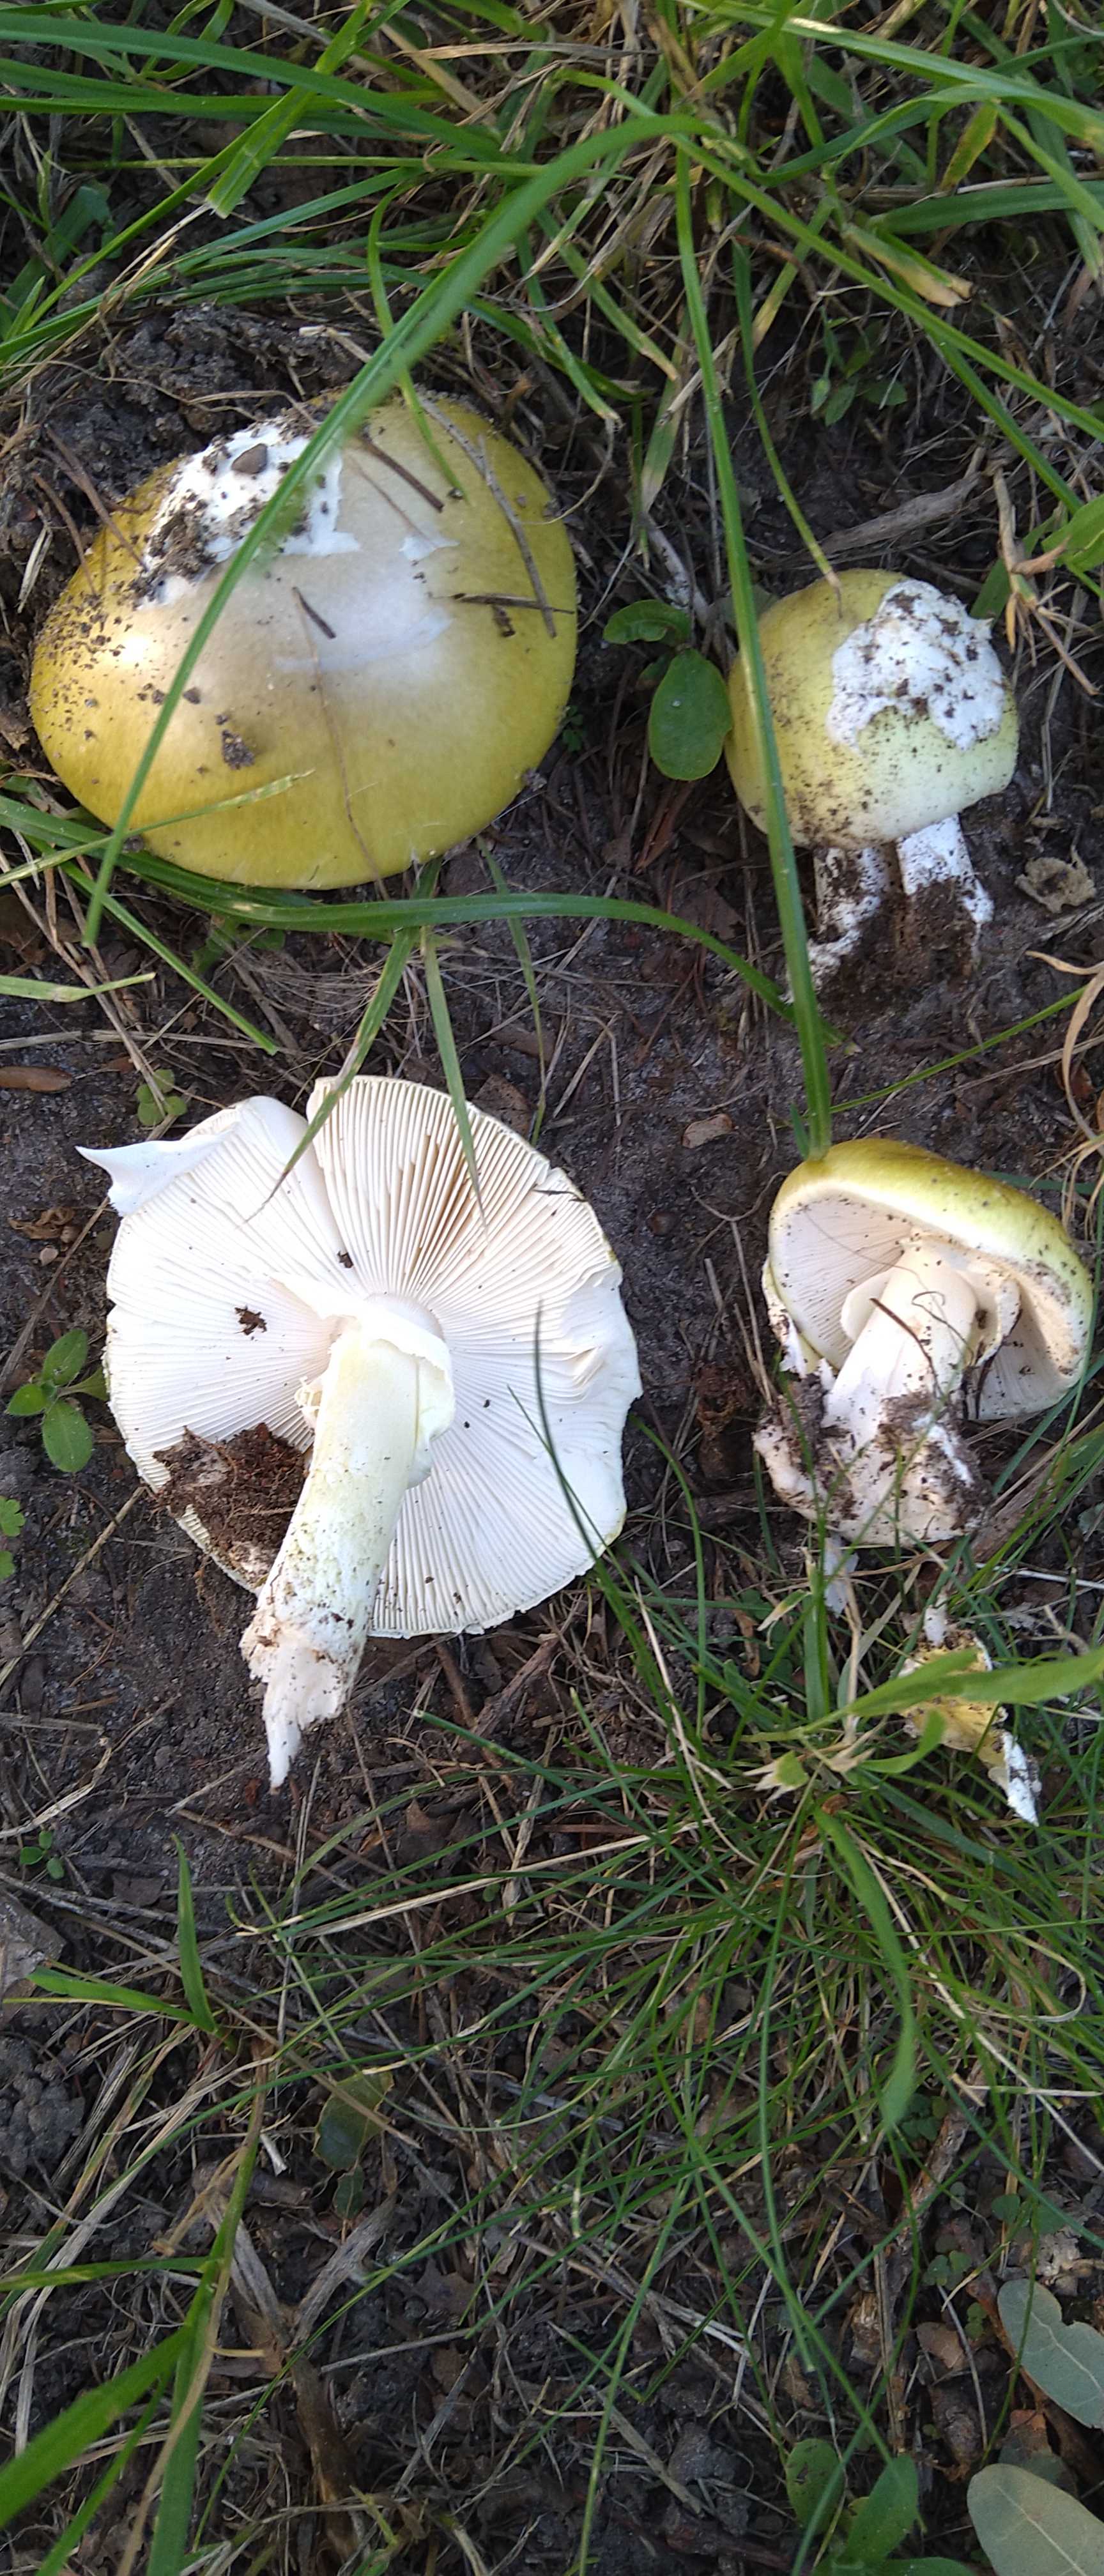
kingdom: Fungi
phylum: Basidiomycota
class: Agaricomycetes
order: Agaricales
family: Amanitaceae
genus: Amanita
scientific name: Amanita phalloides
